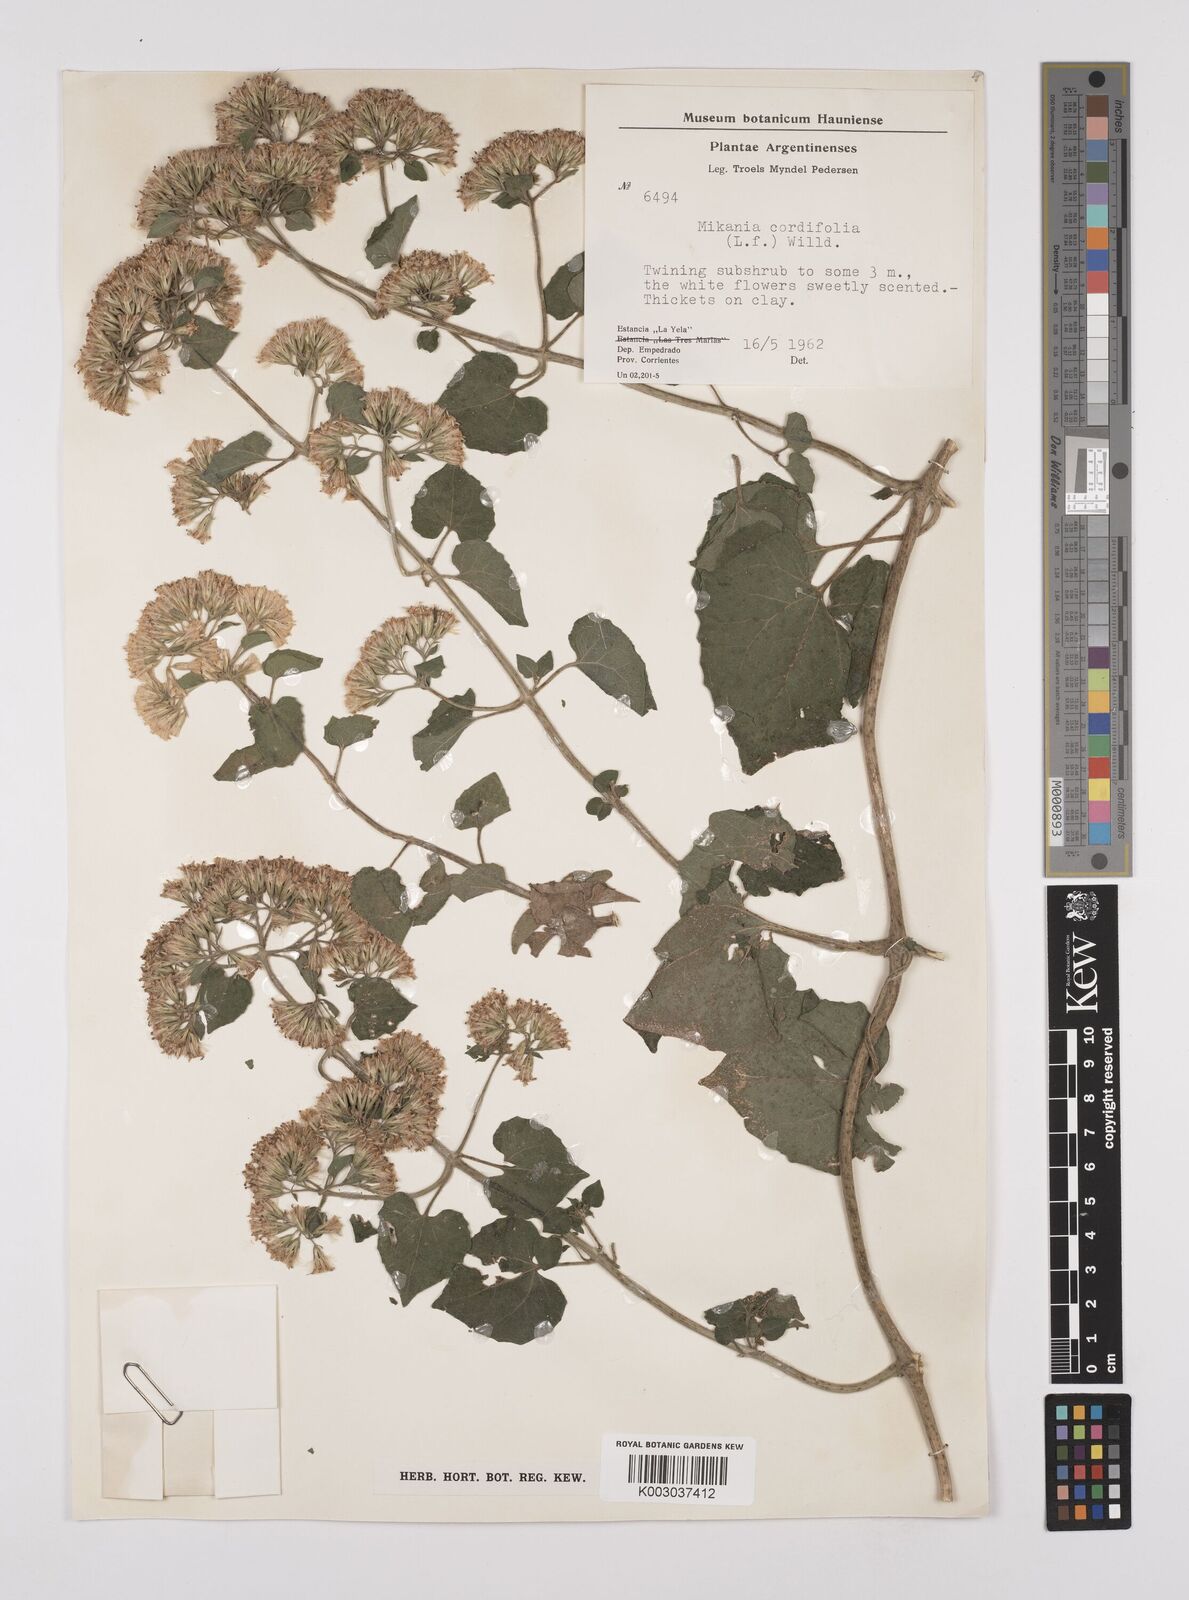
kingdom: Plantae
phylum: Tracheophyta
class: Magnoliopsida
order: Asterales
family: Asteraceae
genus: Mikania
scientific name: Mikania cordifolia
